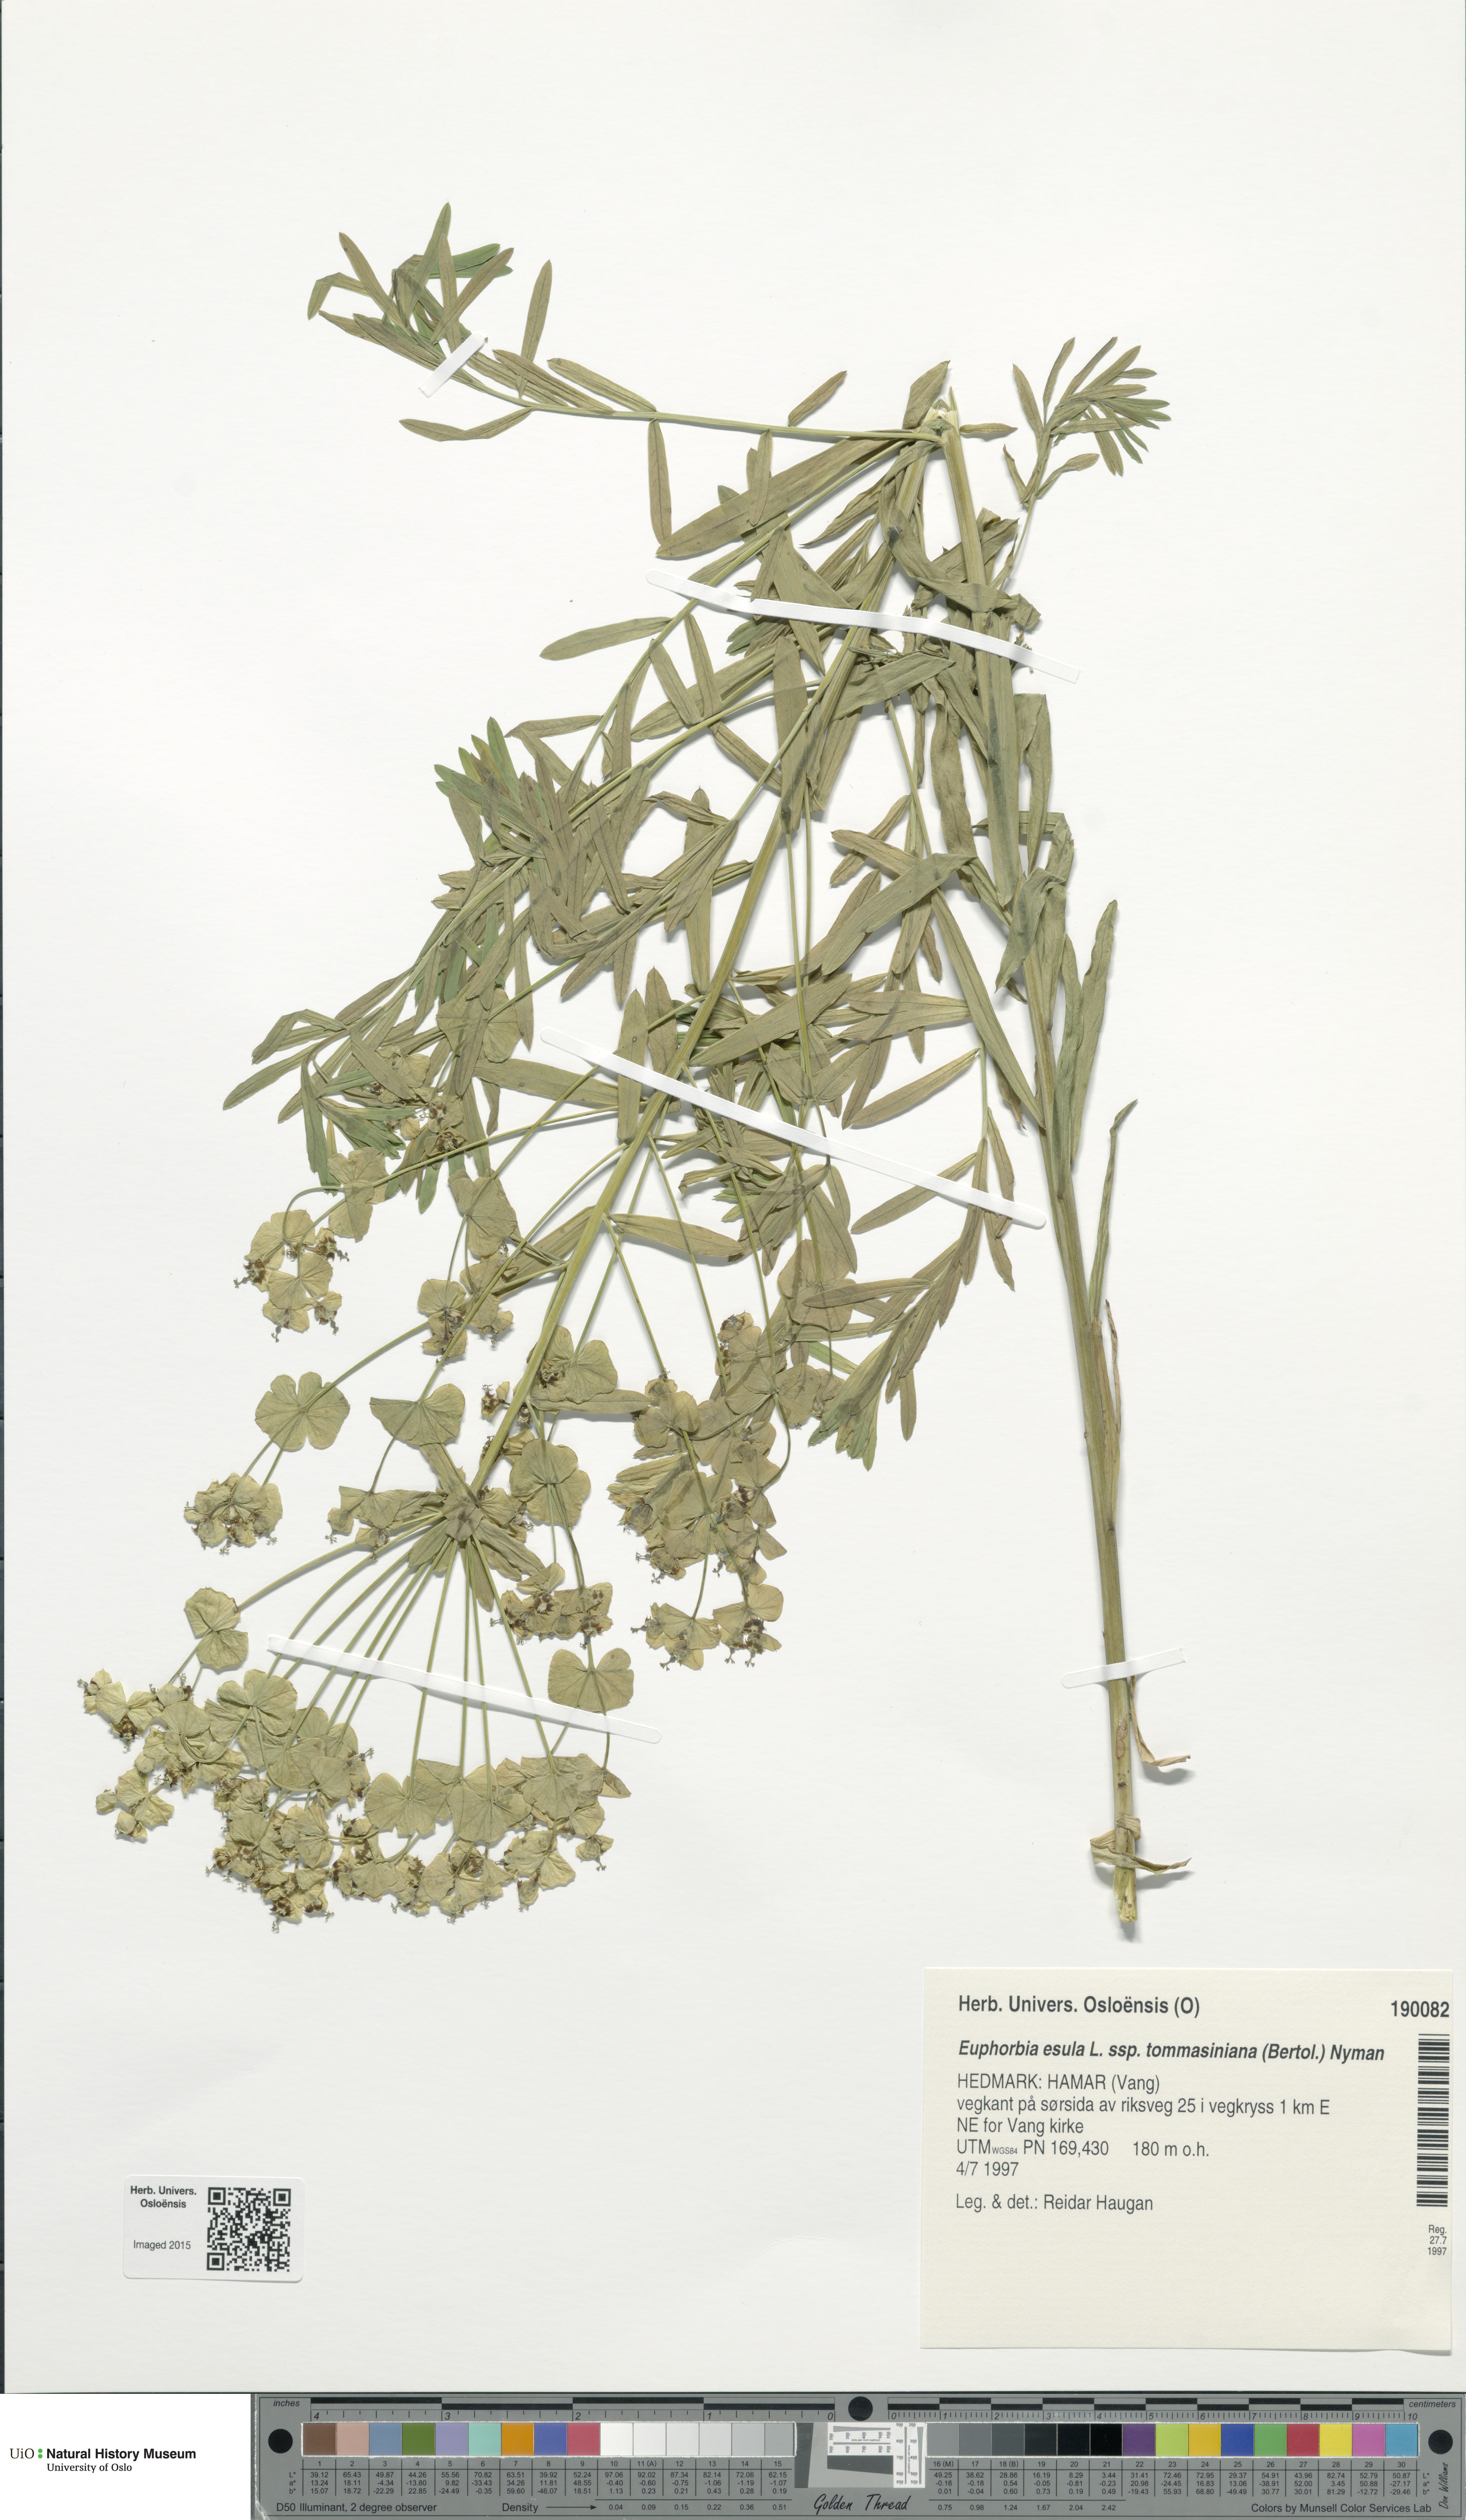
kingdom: Plantae
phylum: Tracheophyta
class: Magnoliopsida
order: Malpighiales
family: Euphorbiaceae
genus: Euphorbia
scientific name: Euphorbia tommasiniana
